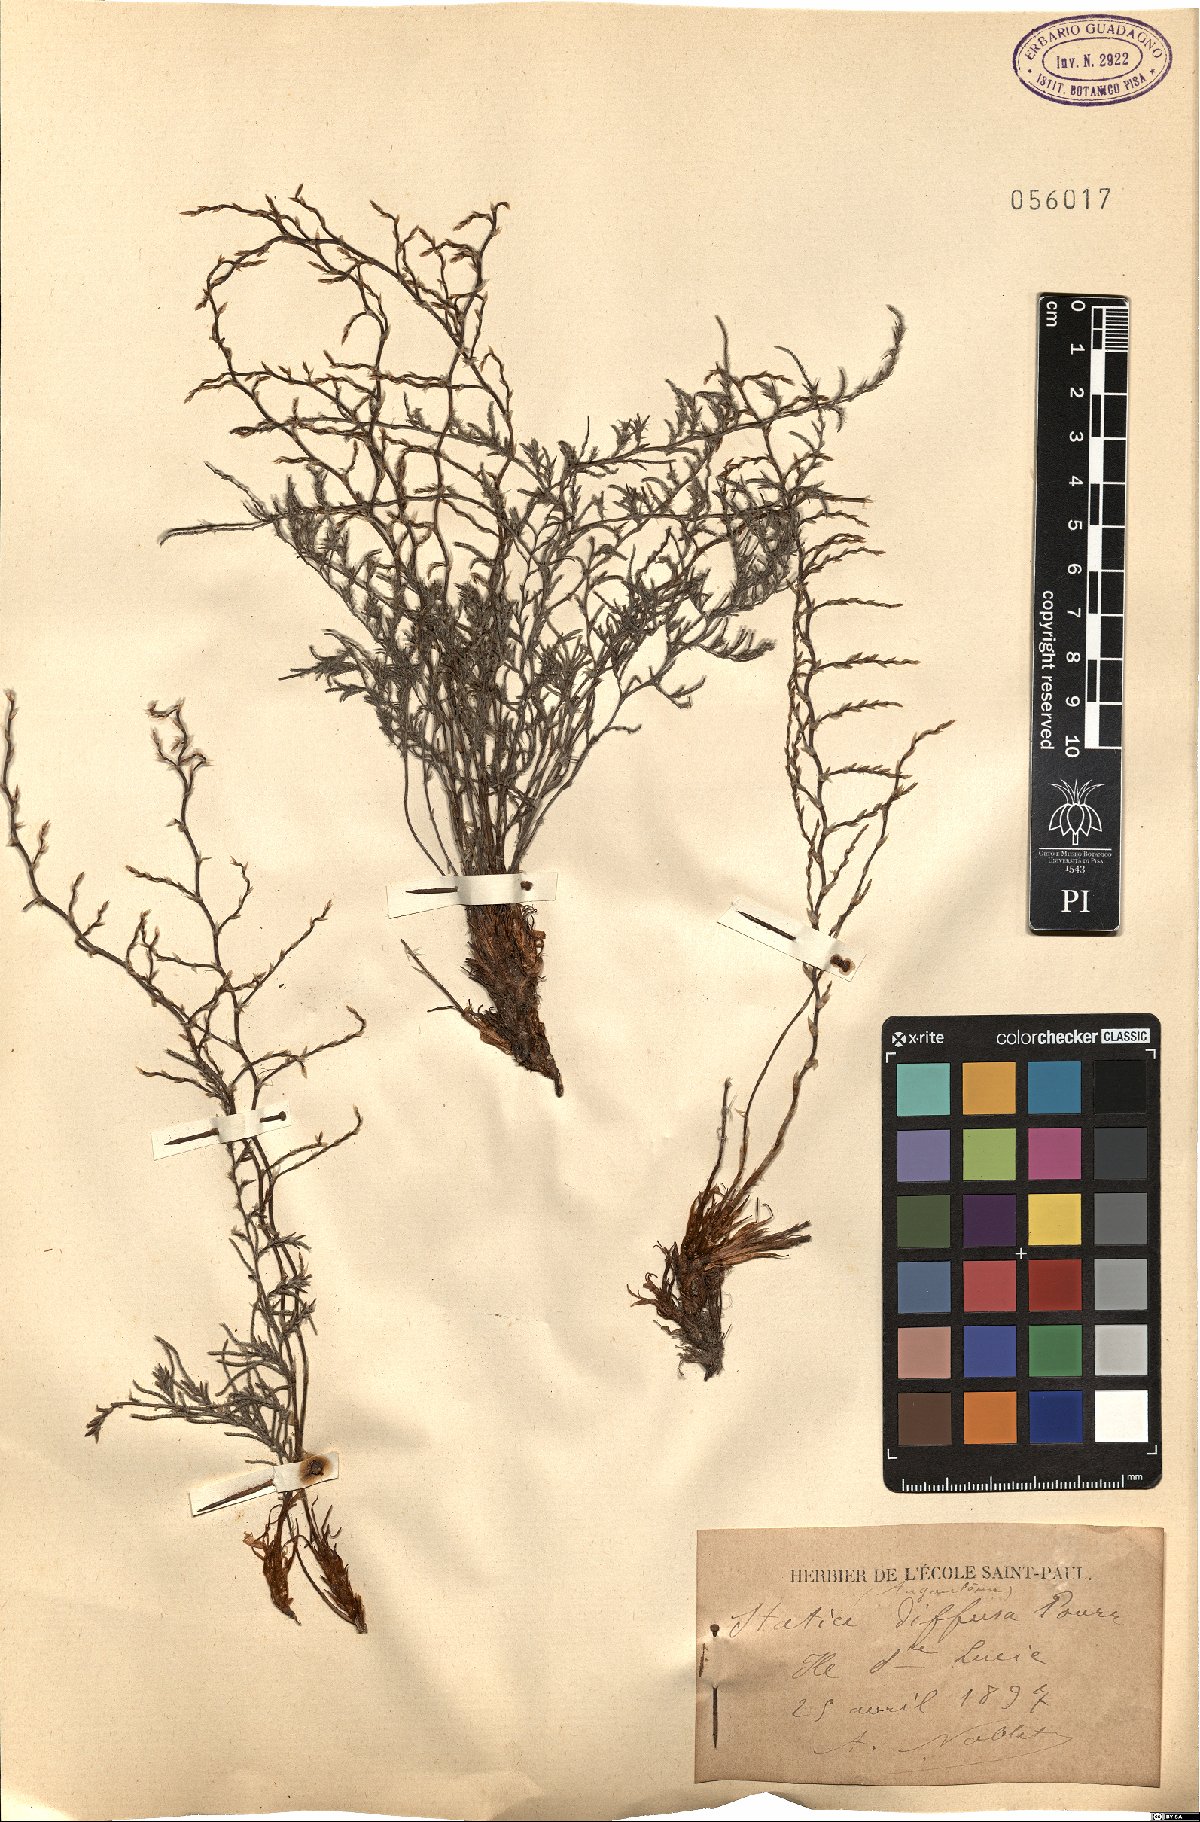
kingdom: Plantae
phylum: Tracheophyta
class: Magnoliopsida
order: Caryophyllales
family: Plumbaginaceae
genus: Limonium
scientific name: Limonium bellidifolium
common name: Matted sea-lavender
